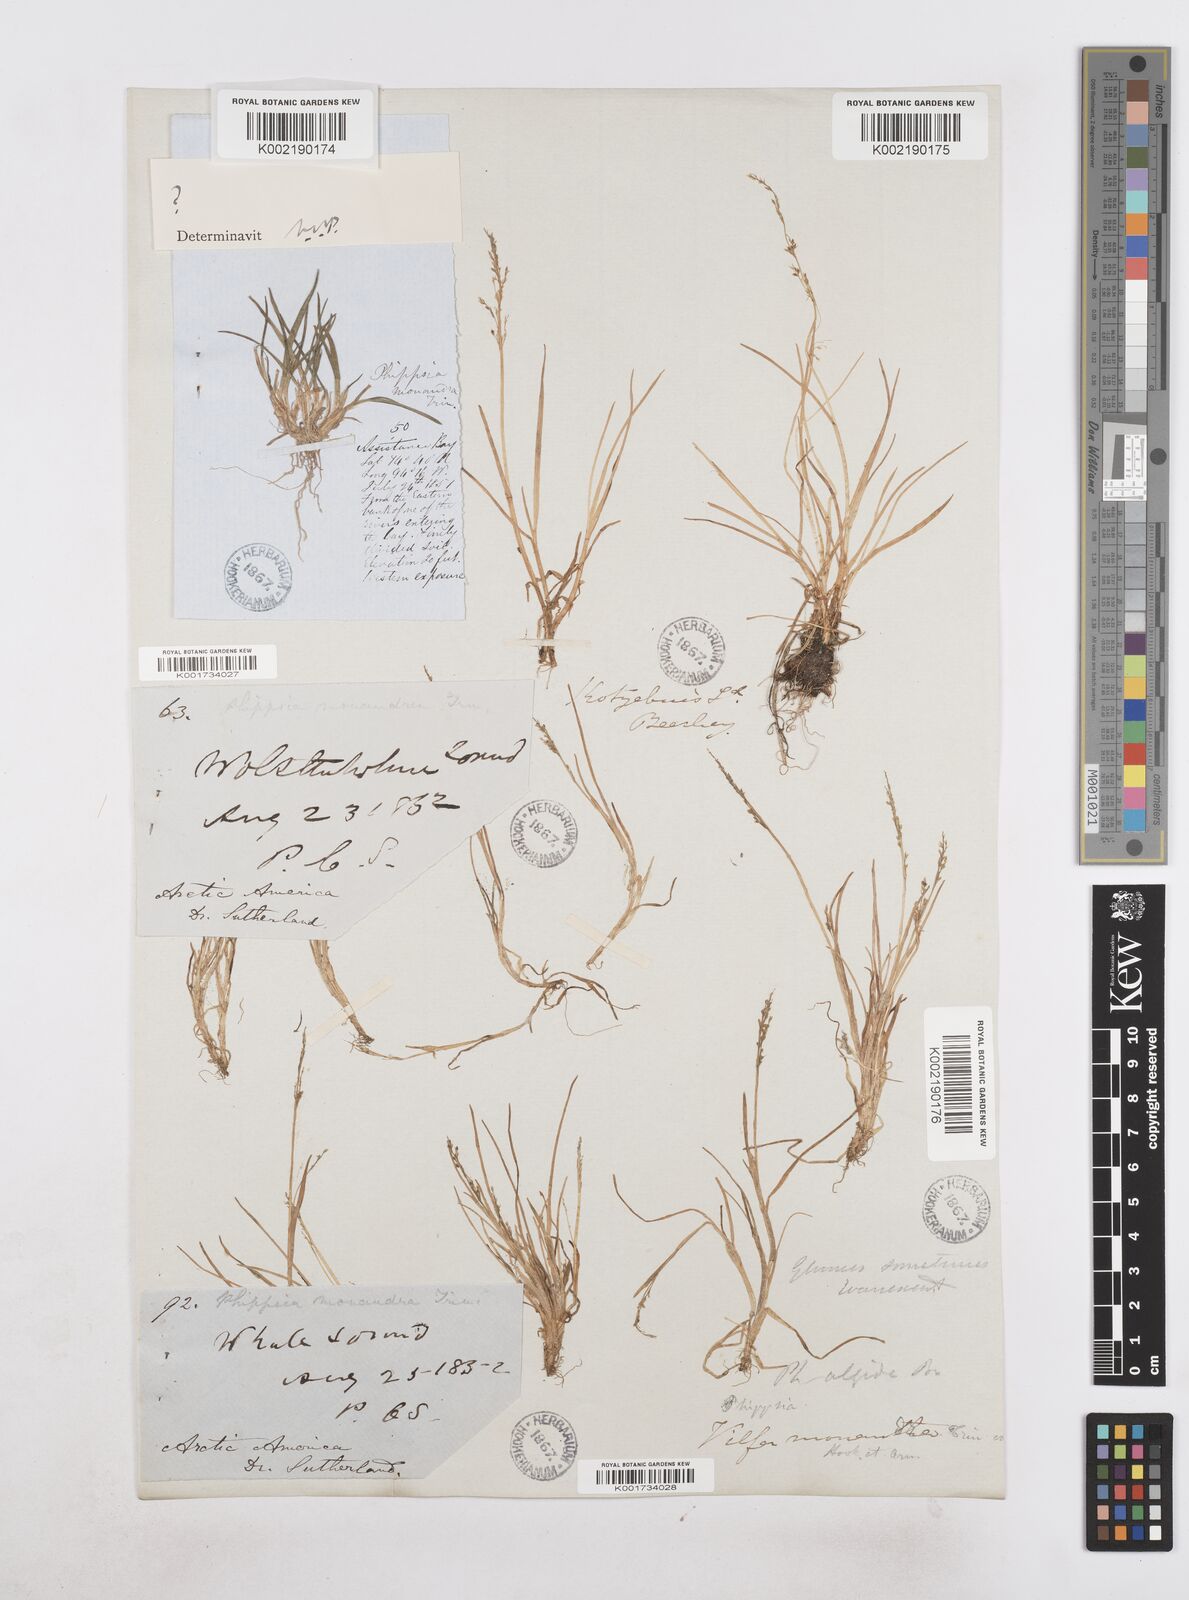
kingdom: Plantae
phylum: Tracheophyta
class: Liliopsida
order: Poales
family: Poaceae
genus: Phippsia
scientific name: Phippsia
